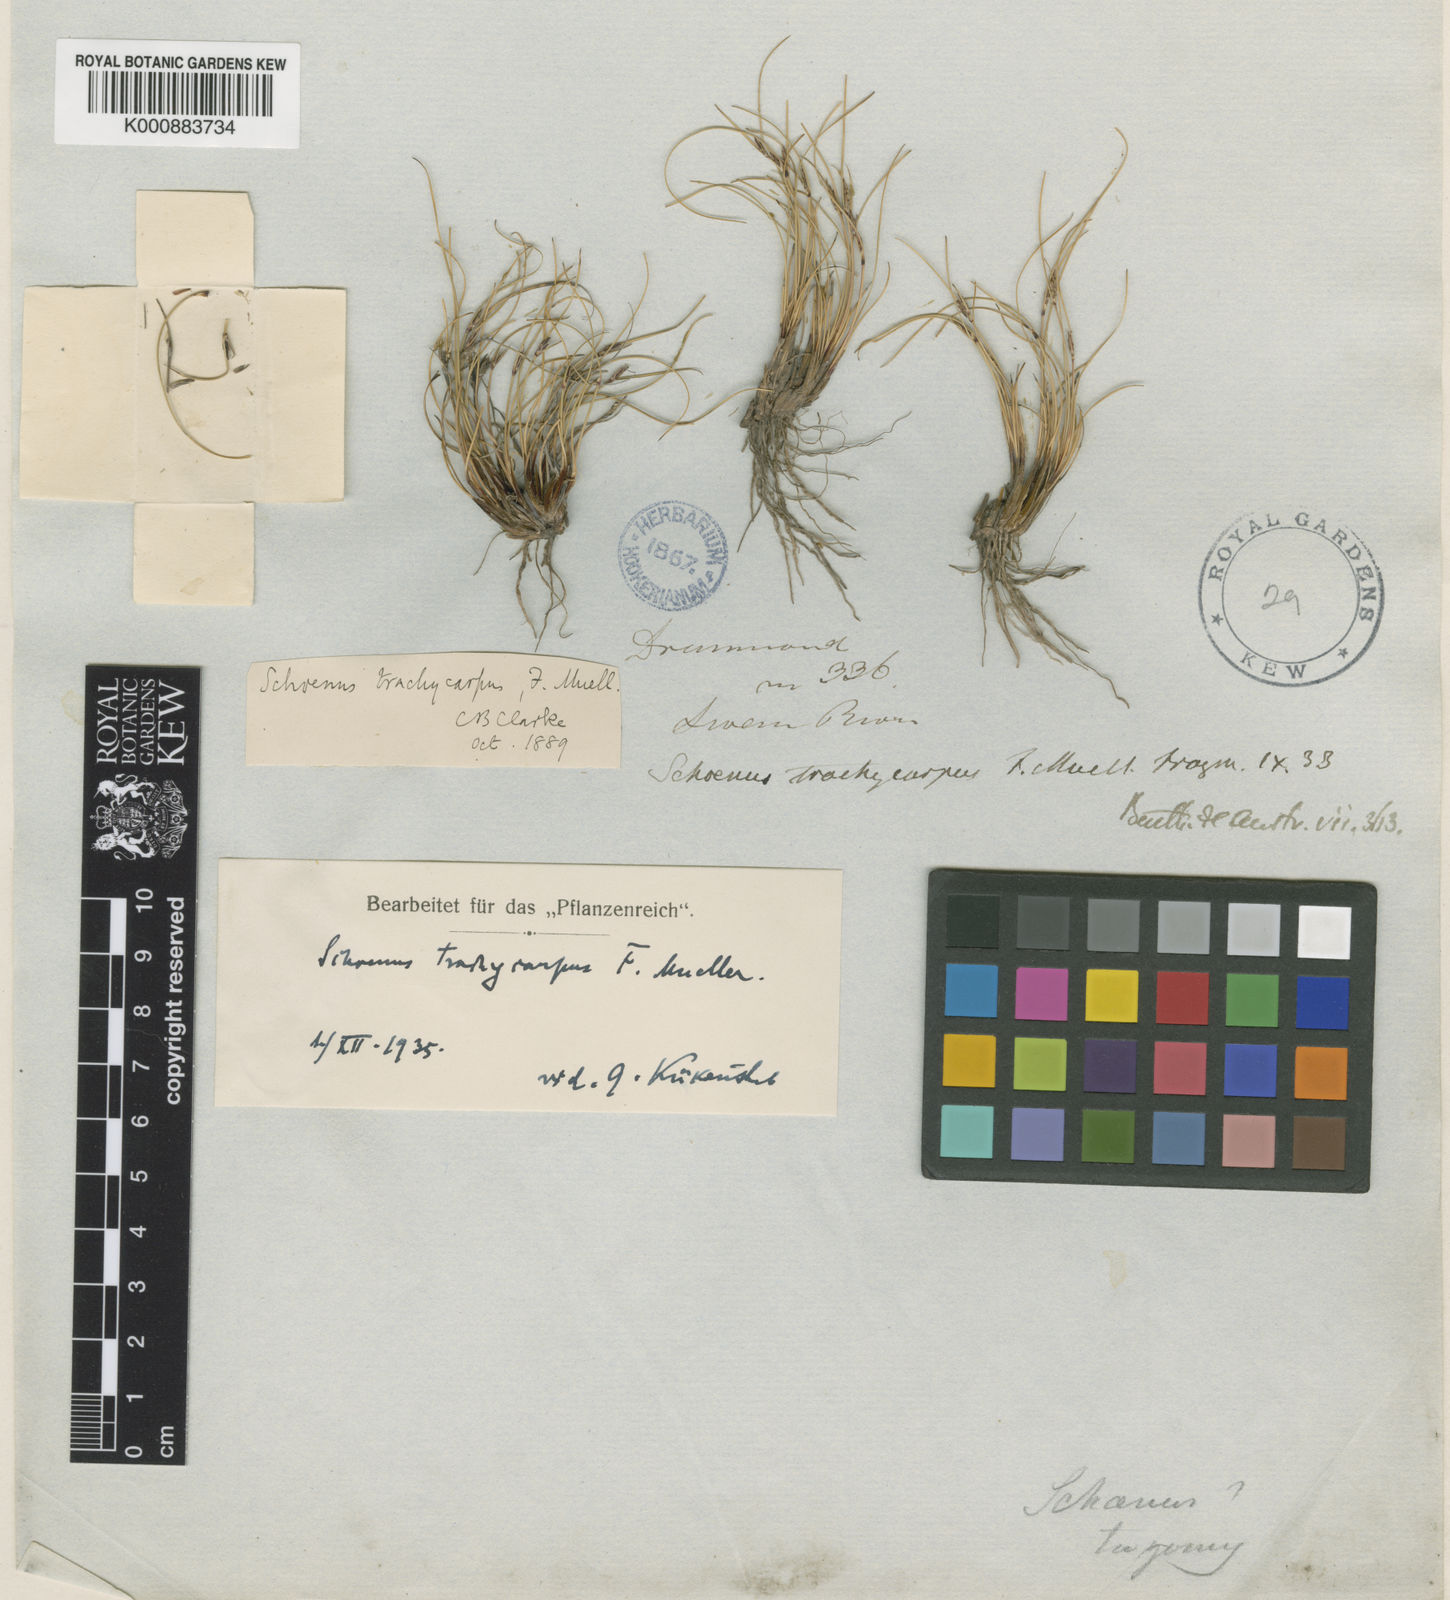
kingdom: Plantae
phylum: Tracheophyta
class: Liliopsida
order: Poales
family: Cyperaceae
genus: Schoenus
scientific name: Schoenus trachycarpus
